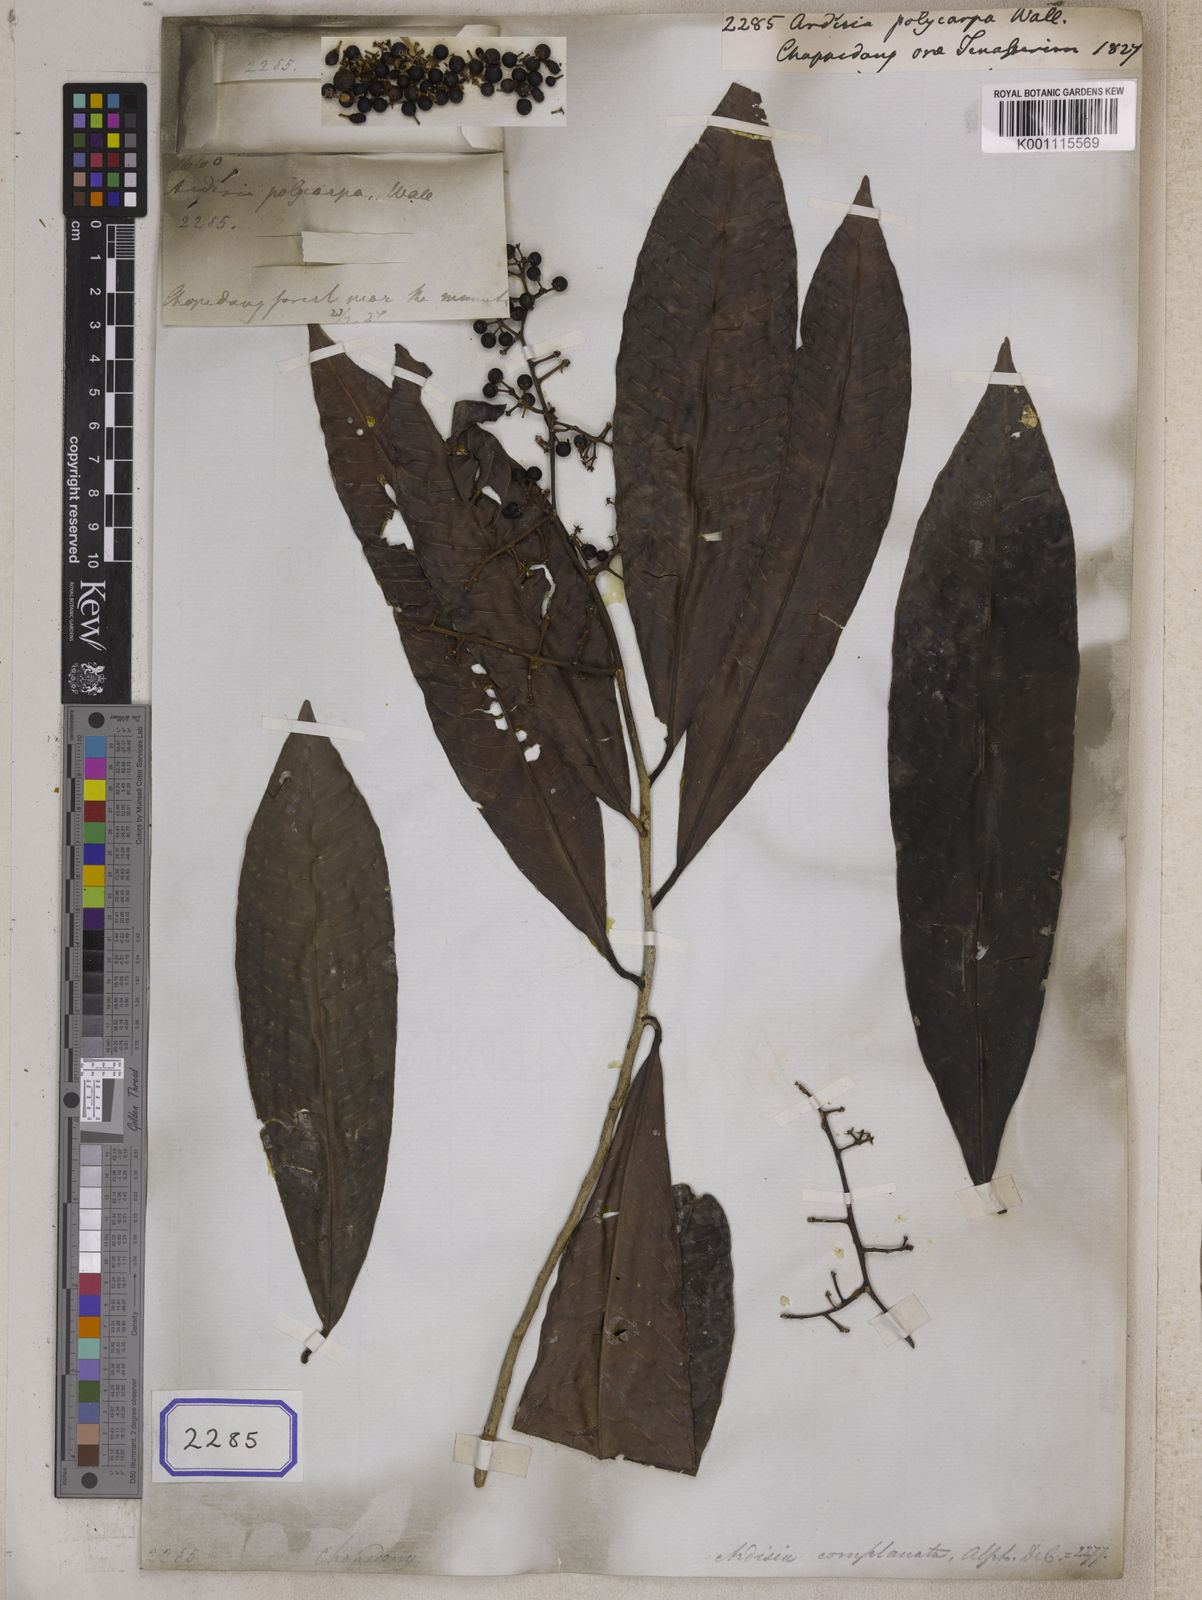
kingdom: Plantae
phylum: Tracheophyta
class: Magnoliopsida
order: Ericales
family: Primulaceae
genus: Ardisia
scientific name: Ardisia
